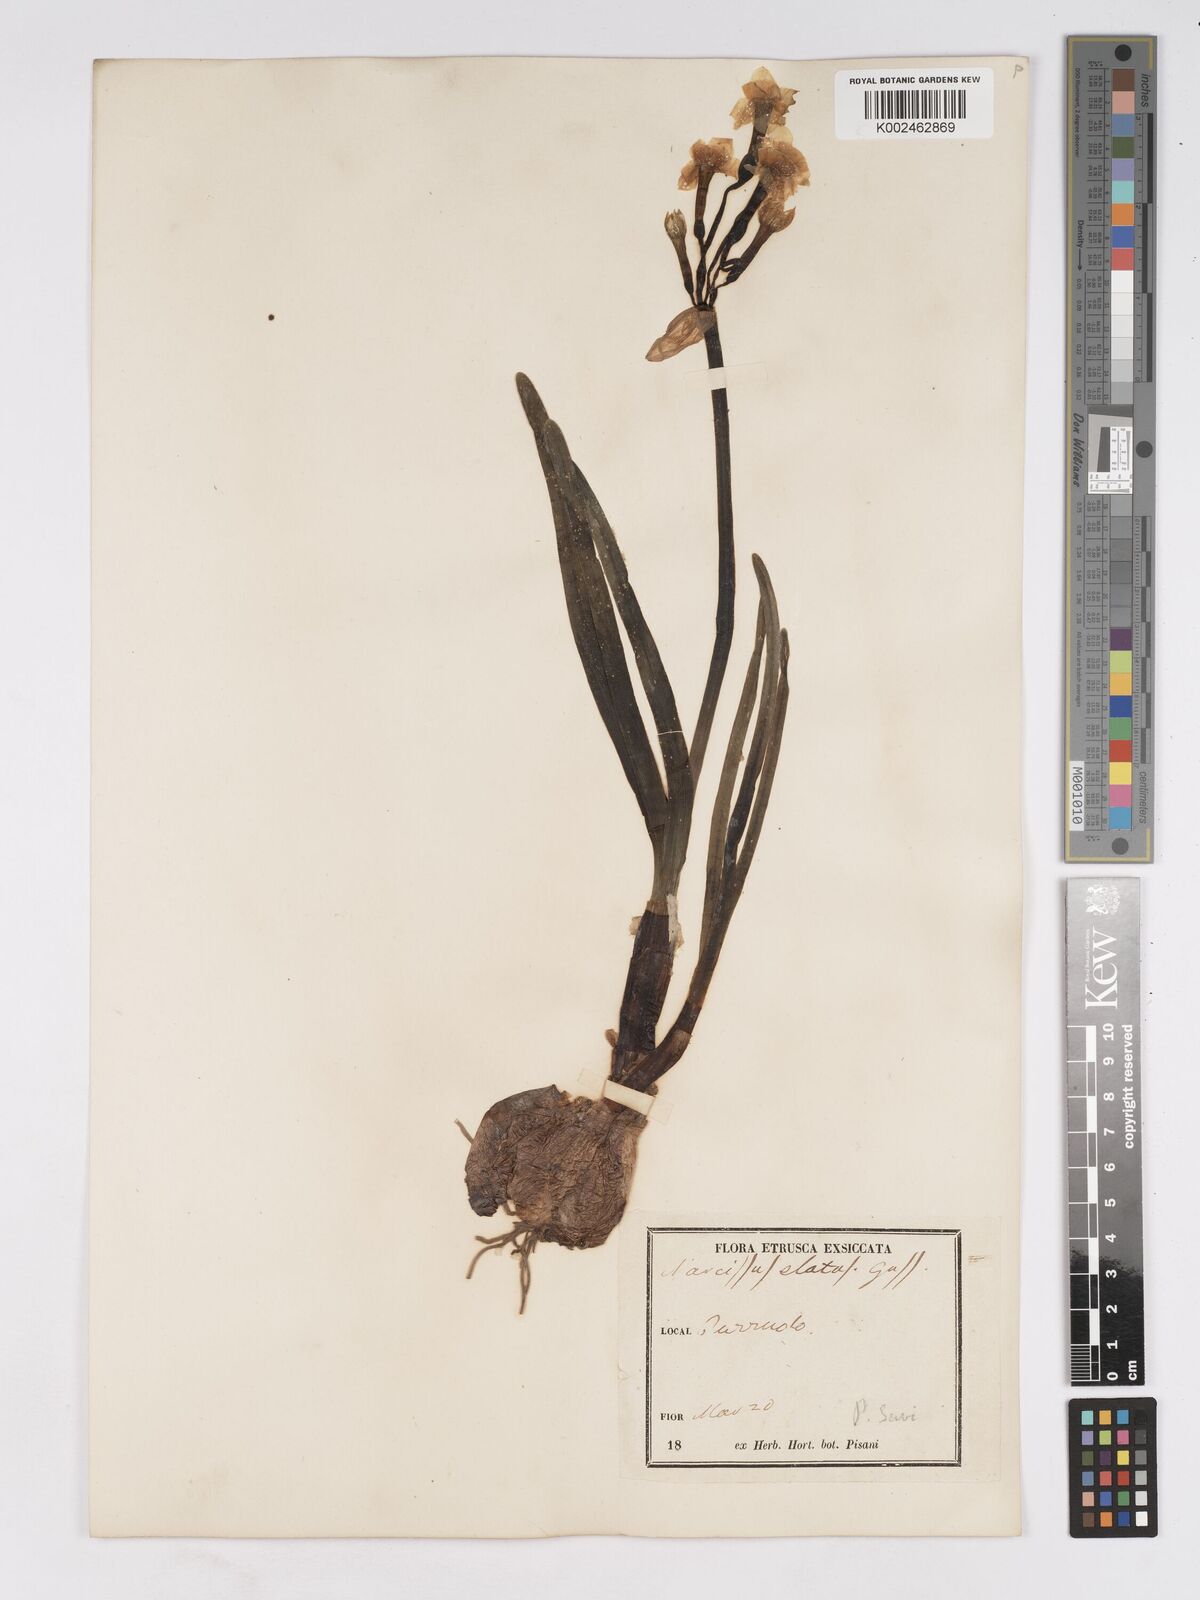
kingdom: Plantae
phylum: Tracheophyta
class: Liliopsida
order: Asparagales
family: Amaryllidaceae
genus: Narcissus
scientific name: Narcissus tazetta
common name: Bunch-flowered daffodil
